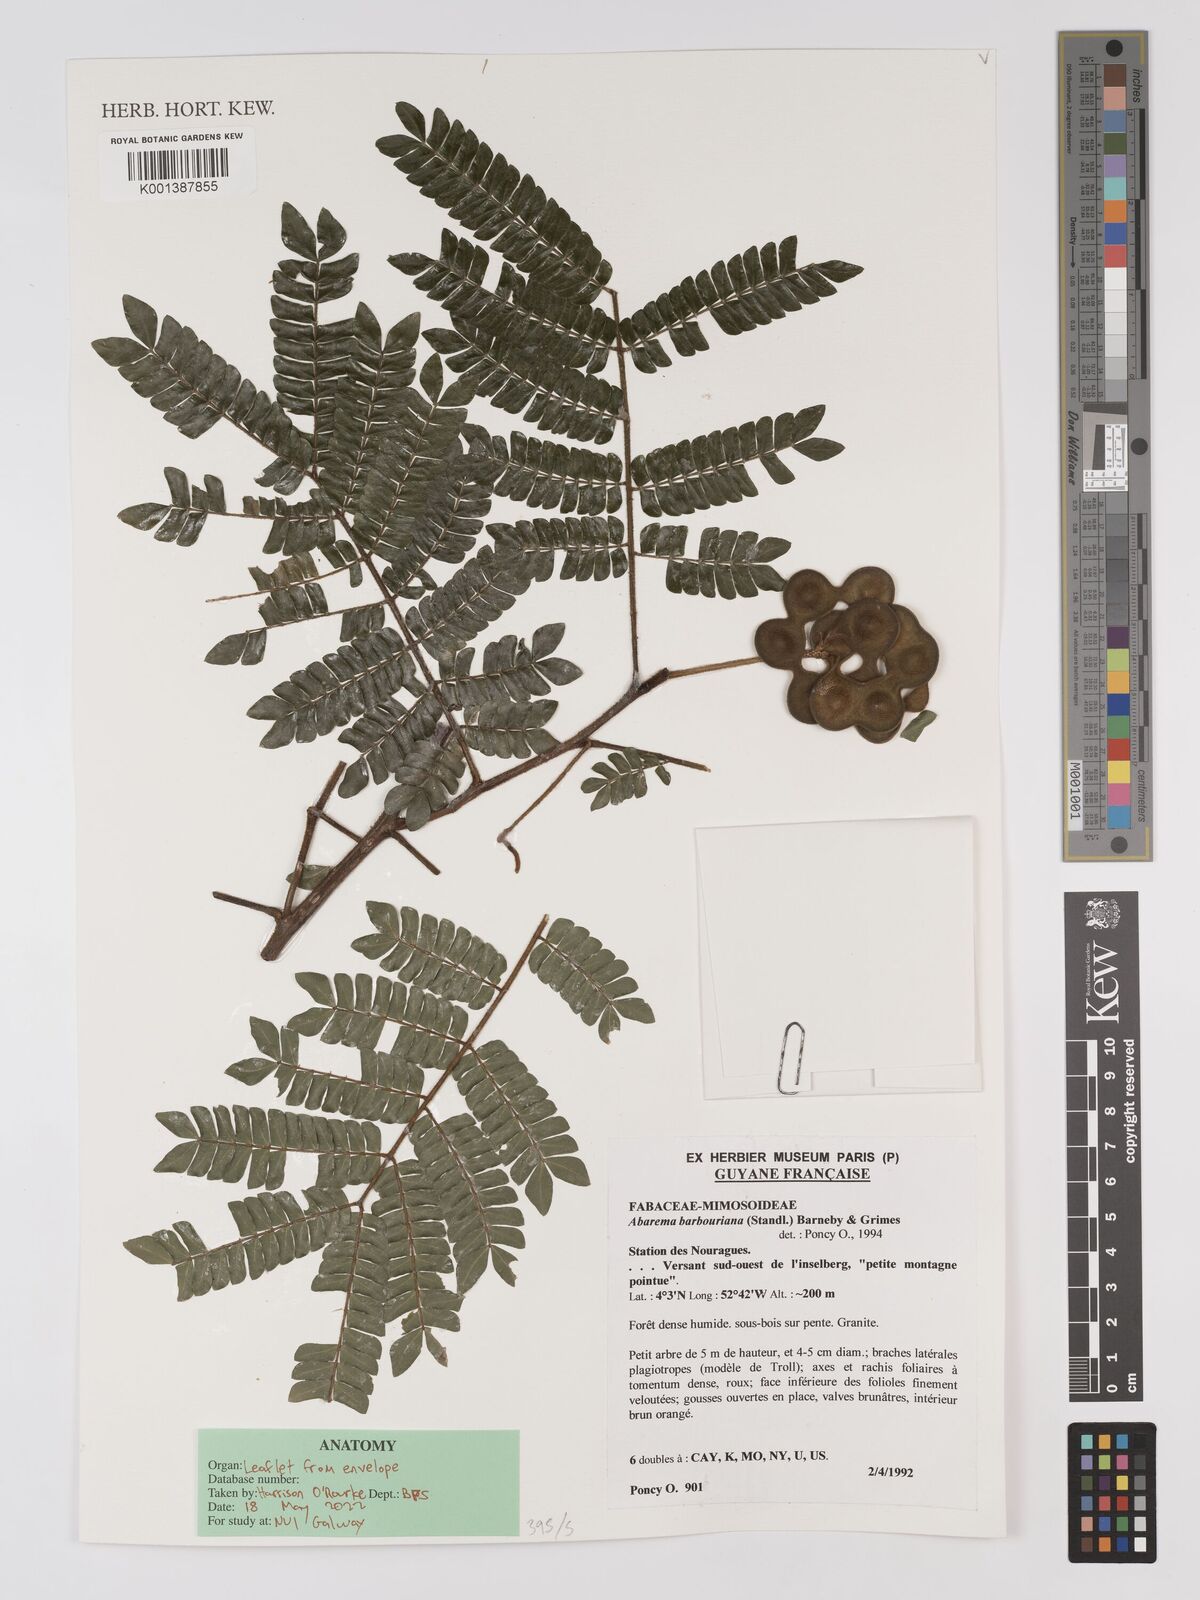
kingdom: Plantae
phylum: Tracheophyta
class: Magnoliopsida
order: Fabales
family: Fabaceae
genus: Jupunba
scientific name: Jupunba barbouriana
